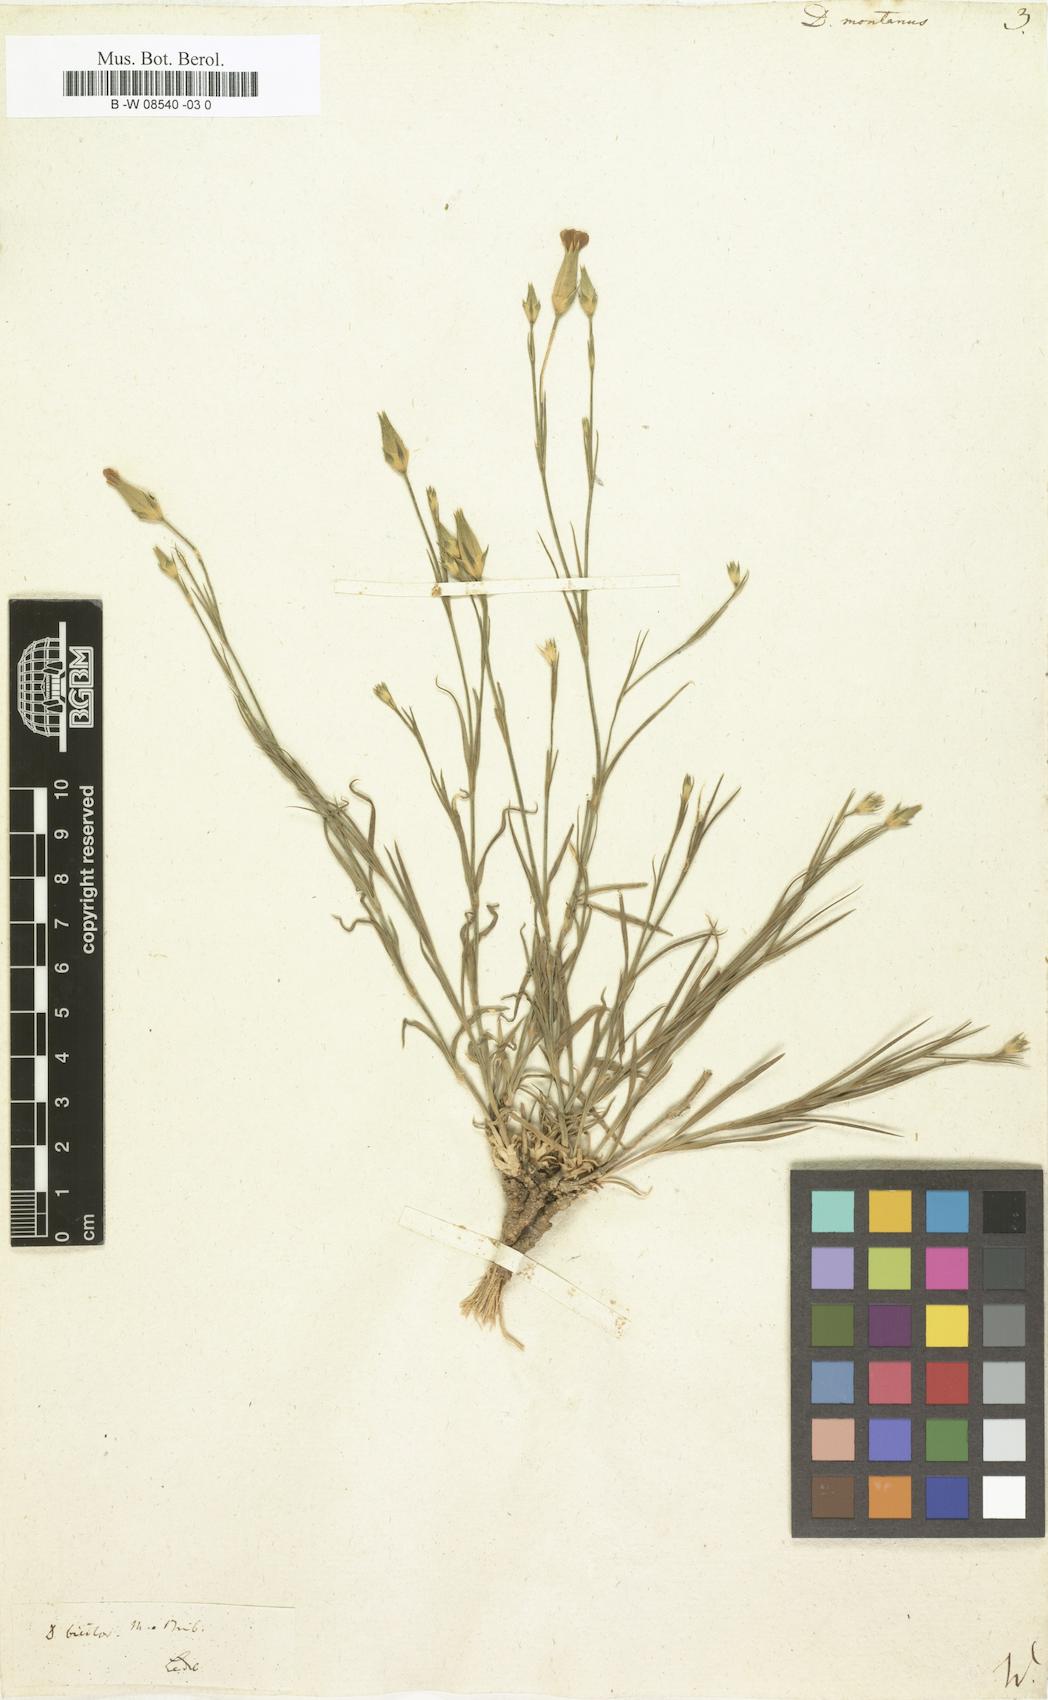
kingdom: Plantae
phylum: Tracheophyta
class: Magnoliopsida
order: Caryophyllales
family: Caryophyllaceae
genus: Dianthus
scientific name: Dianthus
